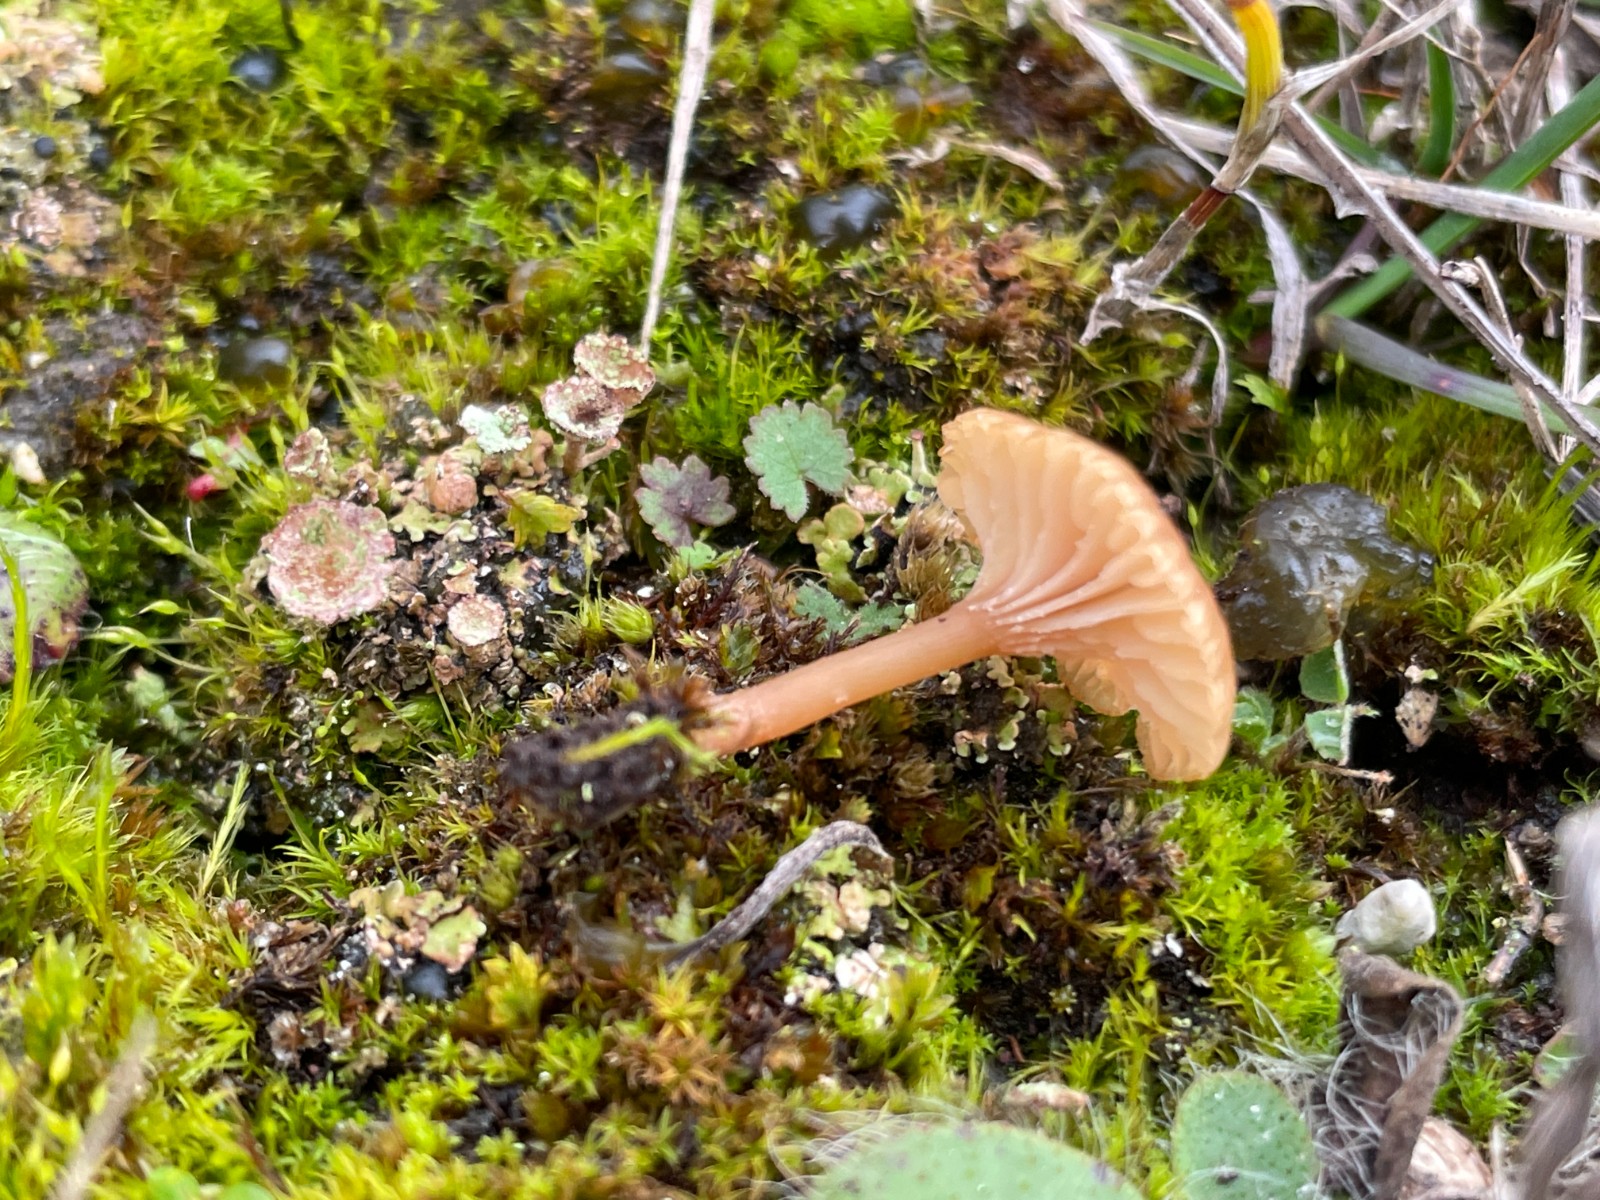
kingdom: Fungi
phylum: Basidiomycota
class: Agaricomycetes
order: Agaricales
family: Tricholomataceae
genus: Omphalina
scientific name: Omphalina pyxidata
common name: rødbrun navlehat
